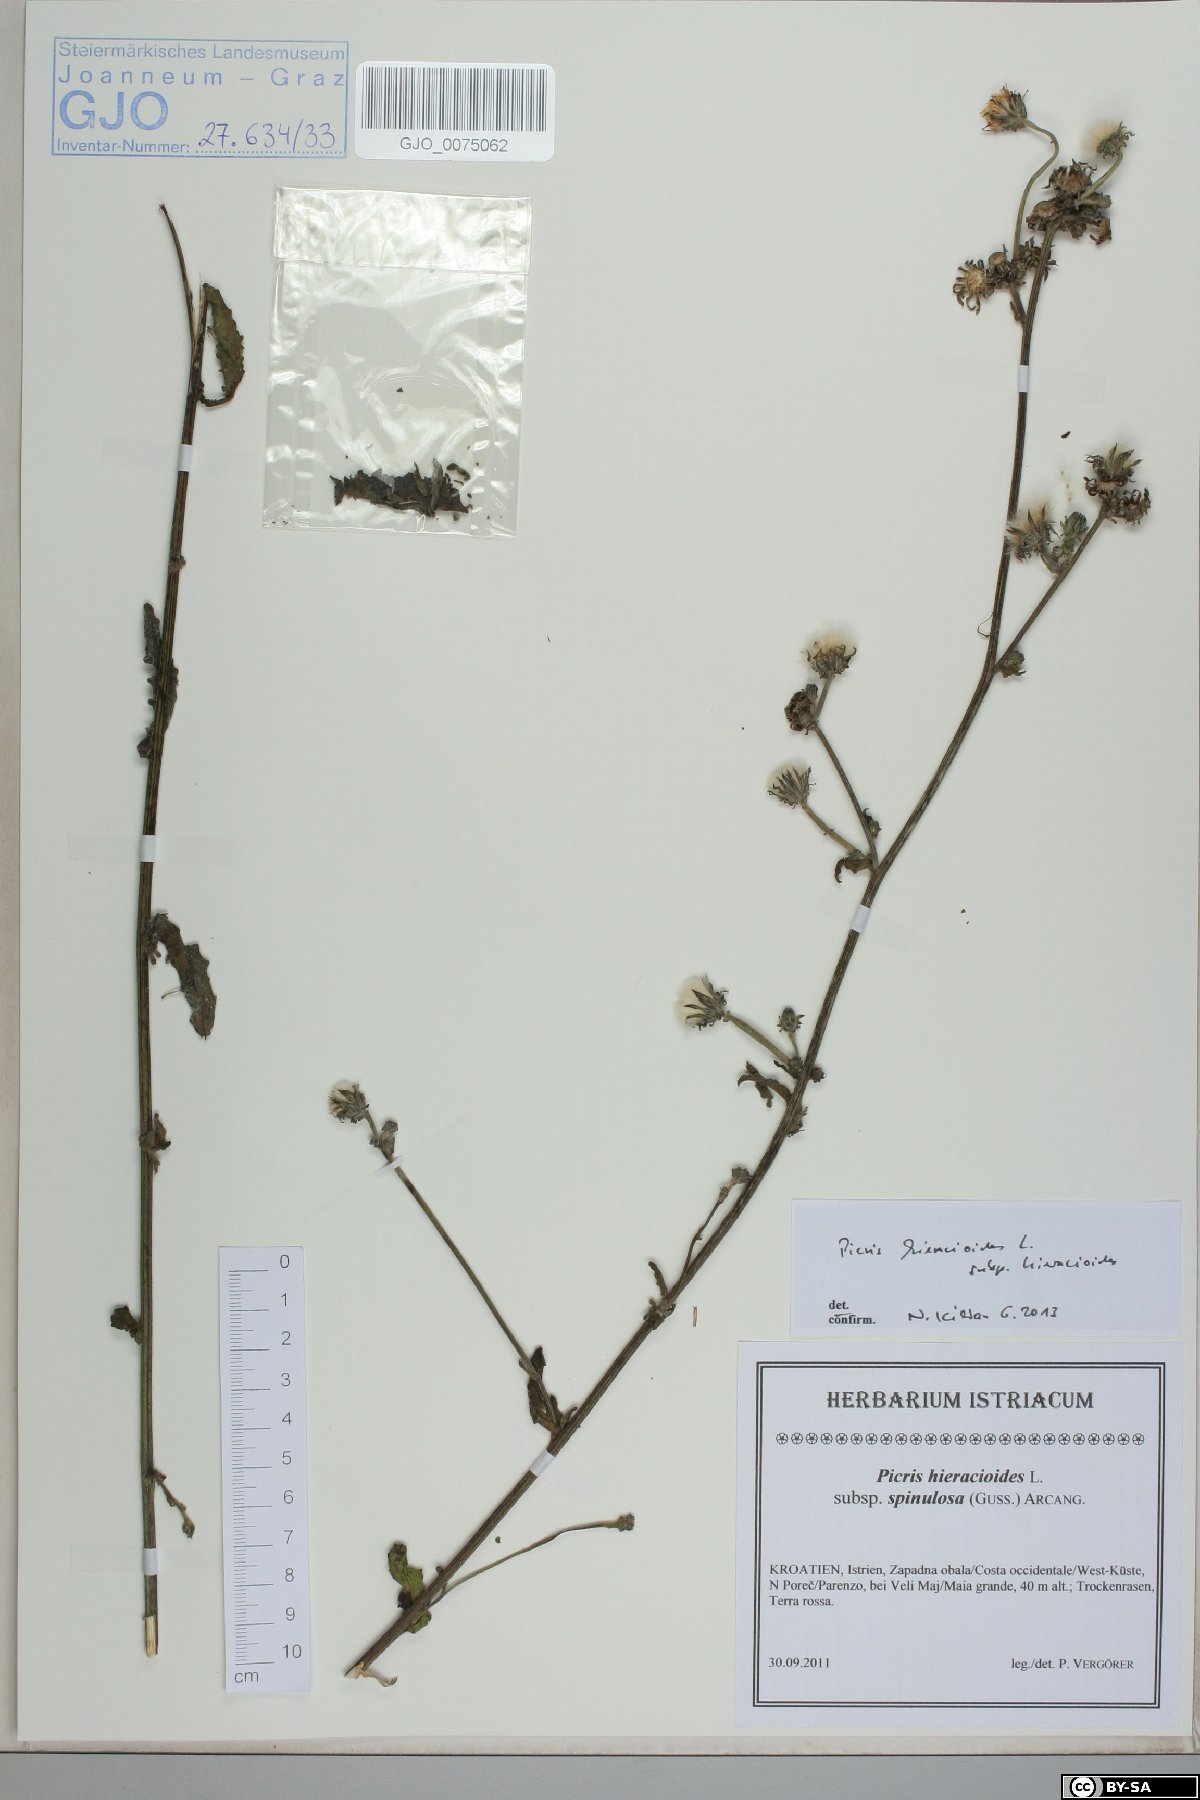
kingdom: Plantae
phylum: Tracheophyta
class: Magnoliopsida
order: Asterales
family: Asteraceae
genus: Picris
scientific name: Picris hieracioides
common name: Hawkweed oxtongue
